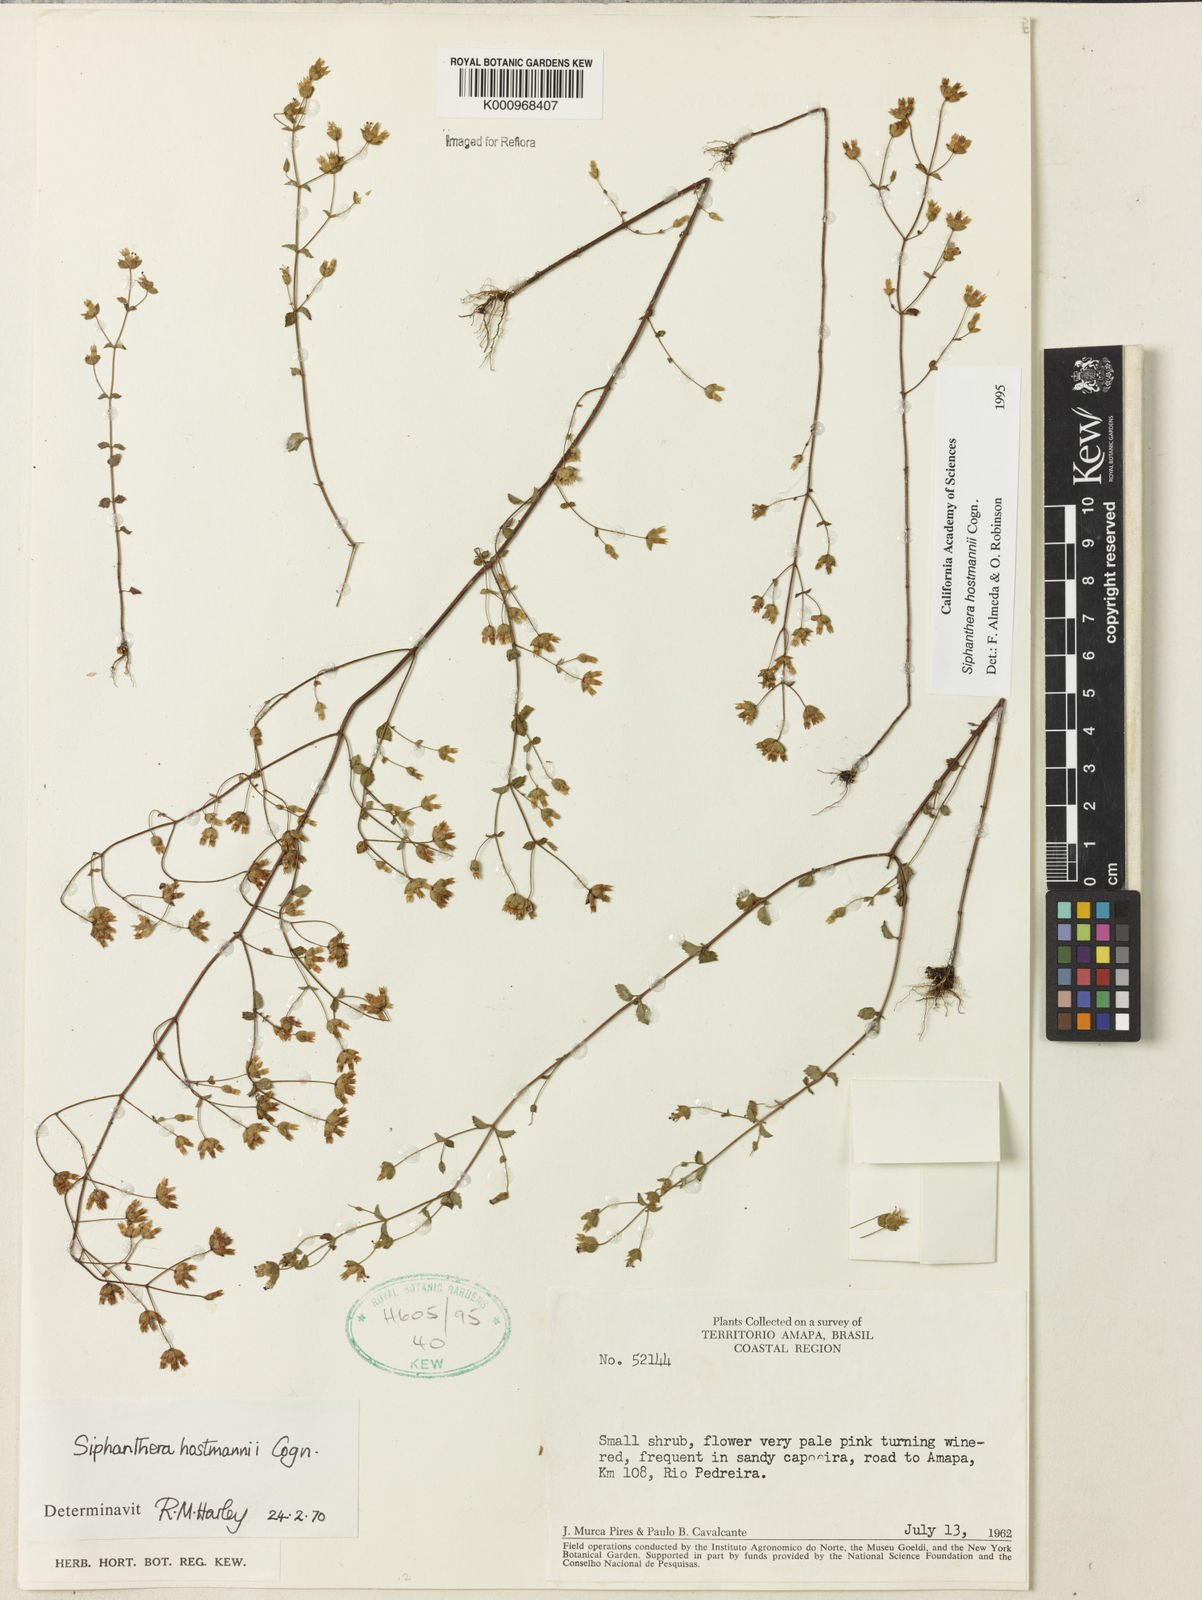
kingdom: Plantae
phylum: Tracheophyta
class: Magnoliopsida
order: Myrtales
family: Melastomataceae
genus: Siphanthera
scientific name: Siphanthera hostmannii
